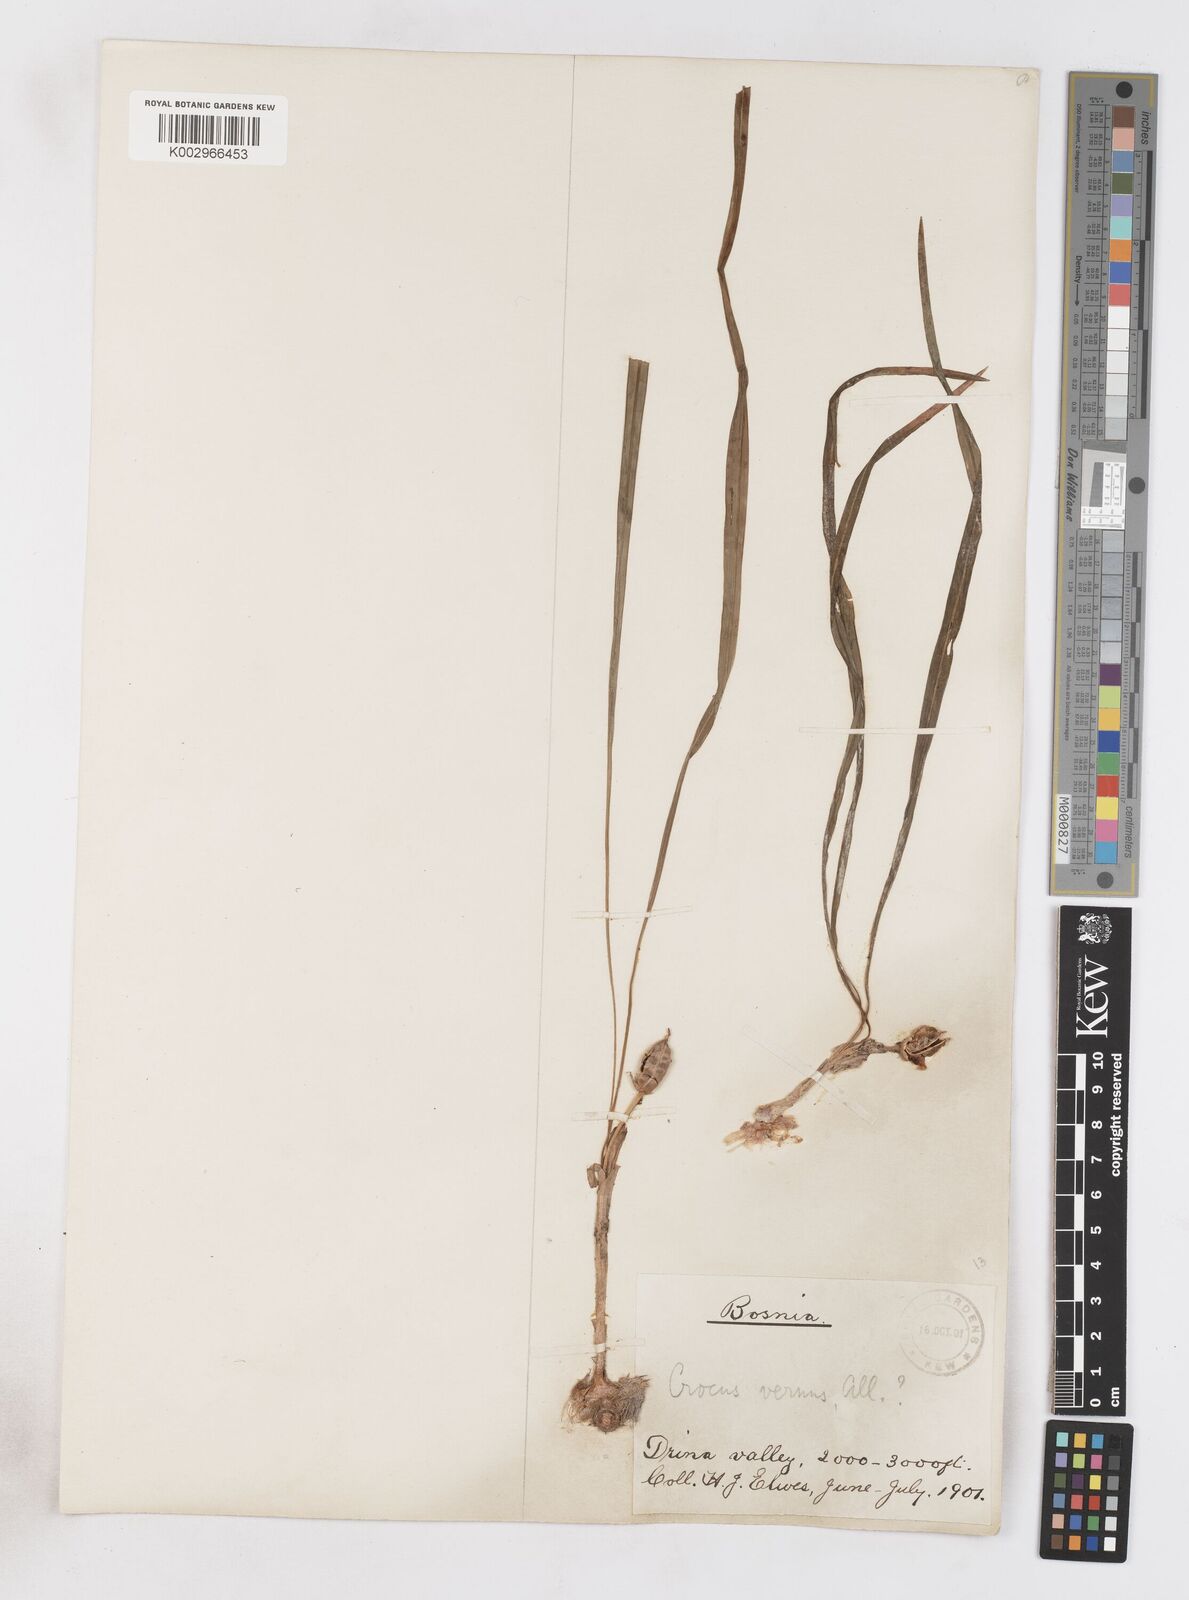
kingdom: Plantae
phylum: Tracheophyta
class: Liliopsida
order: Asparagales
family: Iridaceae
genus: Crocus
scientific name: Crocus vernus
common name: Spring crocus
